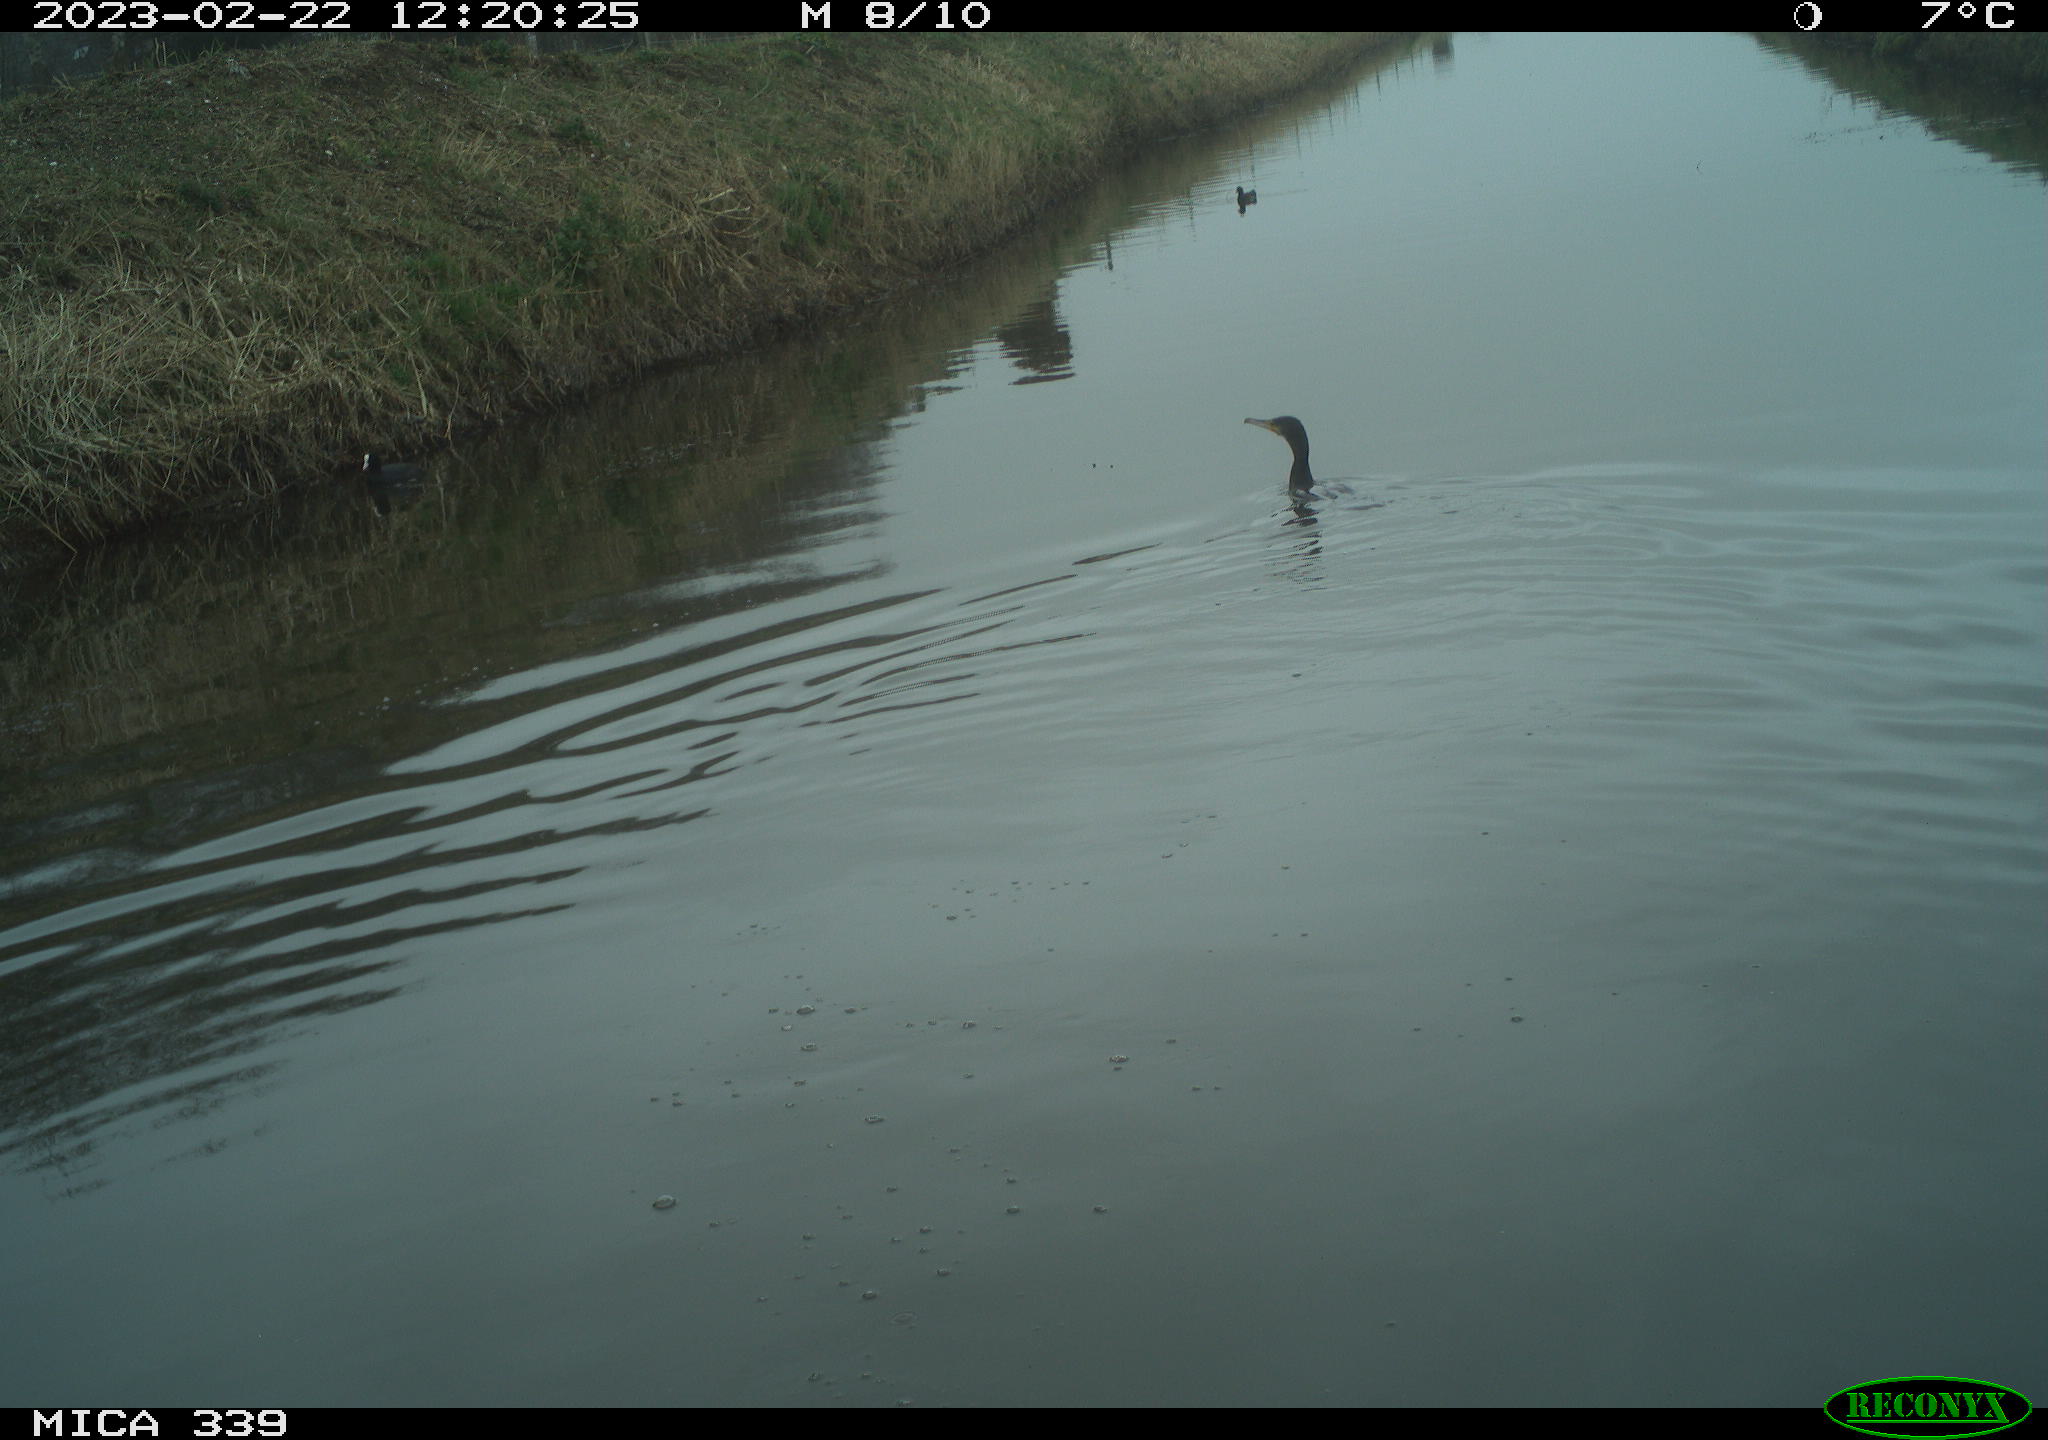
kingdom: Animalia
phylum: Chordata
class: Aves
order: Suliformes
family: Phalacrocoracidae
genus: Phalacrocorax
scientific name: Phalacrocorax carbo
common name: Great cormorant
